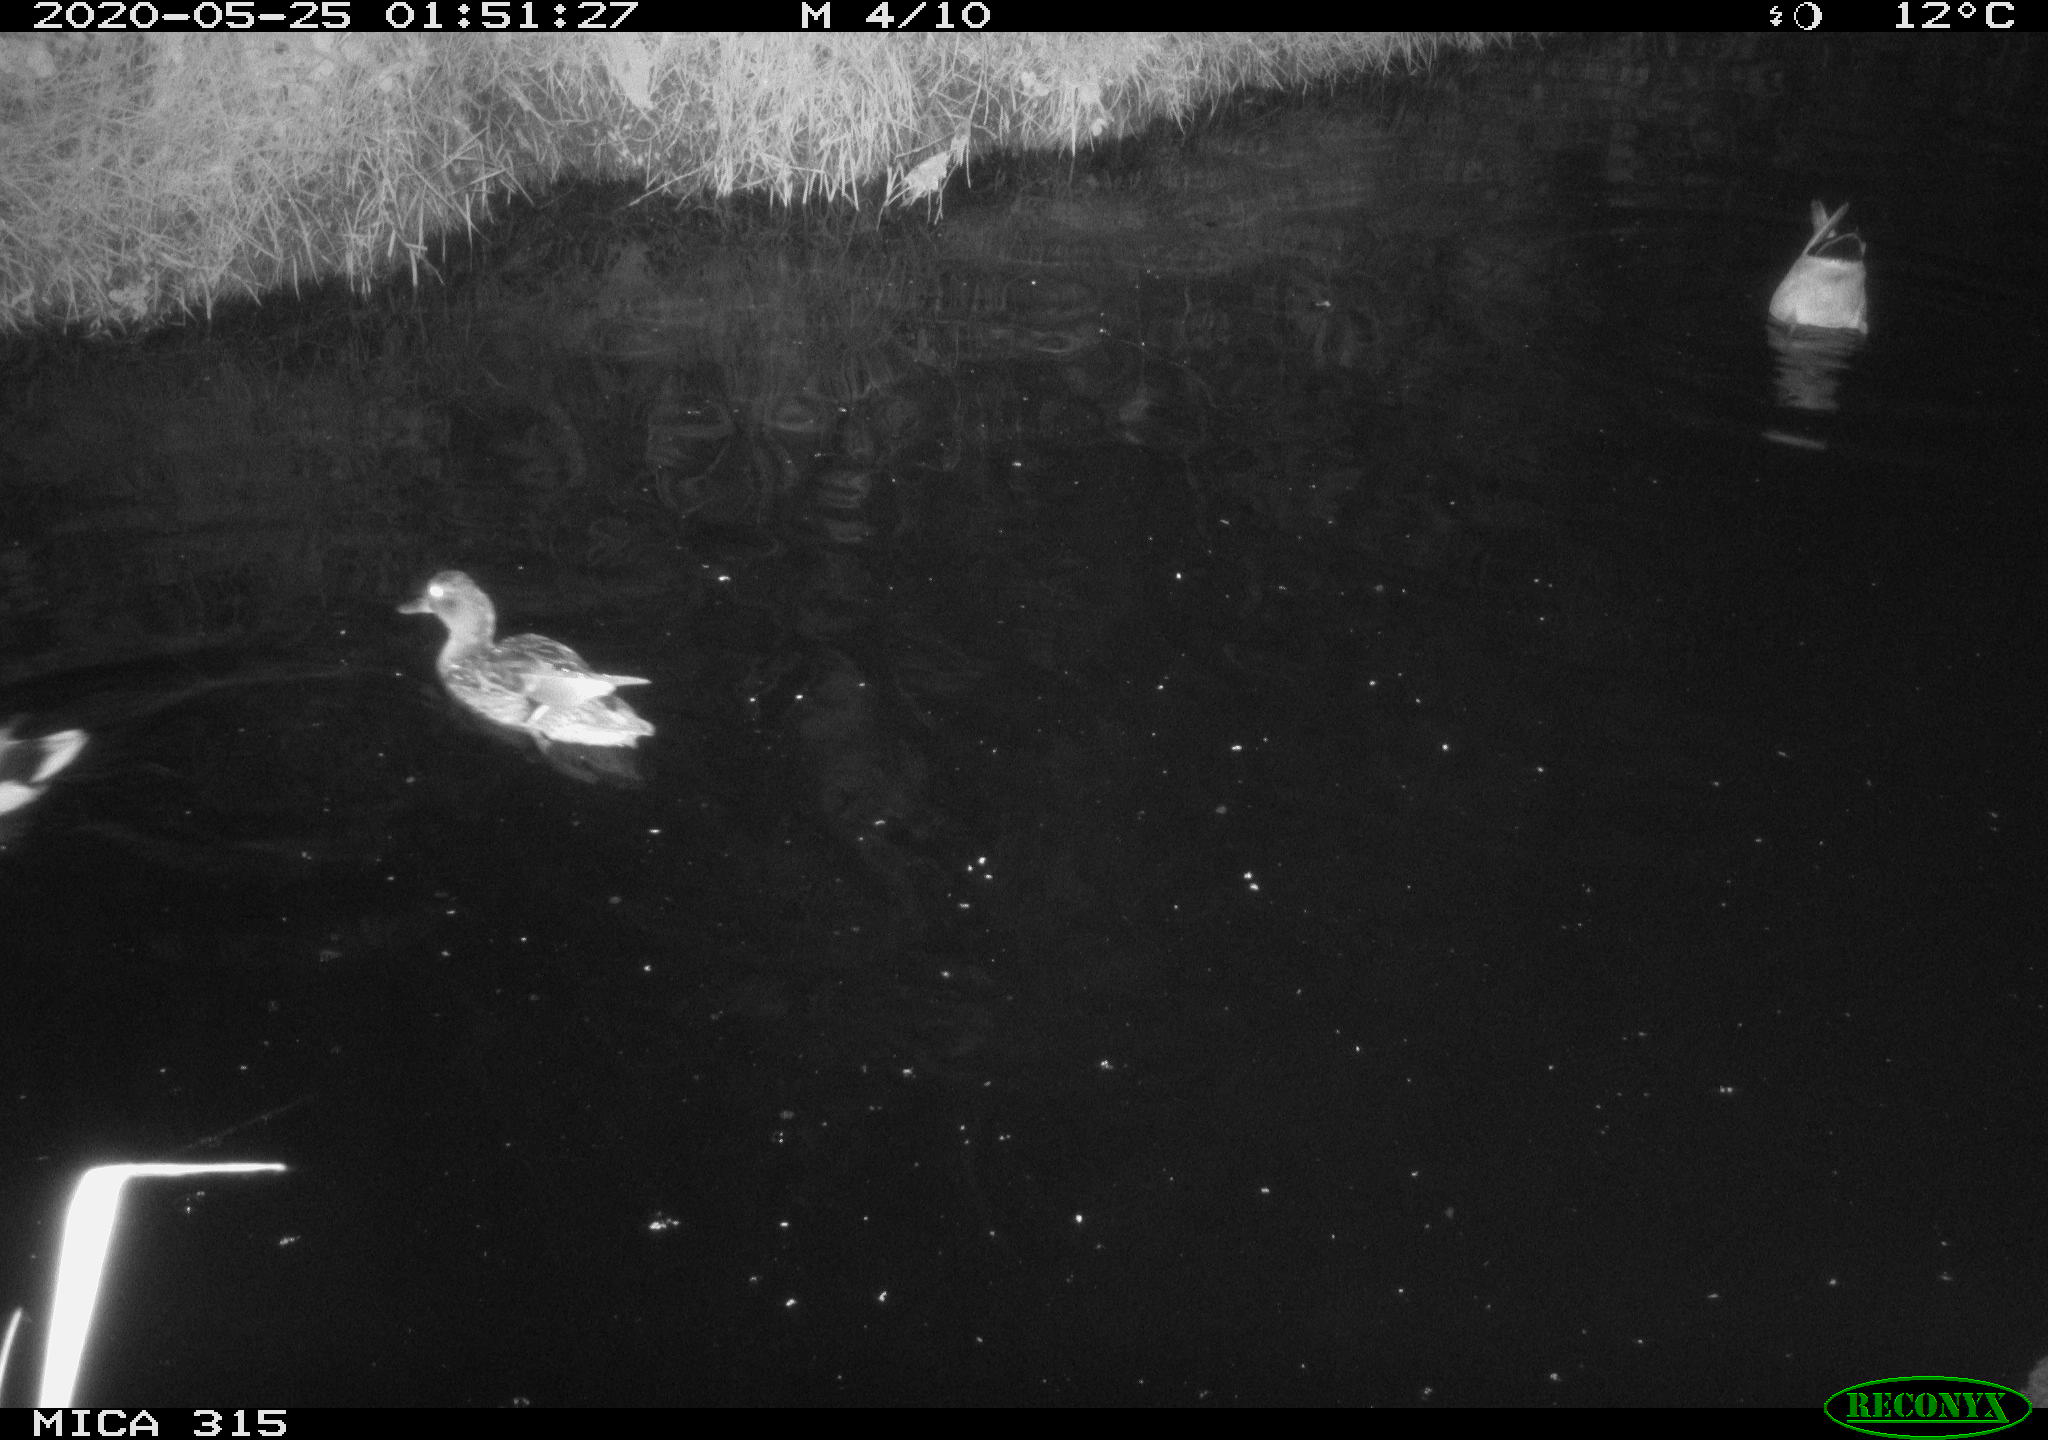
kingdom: Animalia
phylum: Chordata
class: Aves
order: Anseriformes
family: Anatidae
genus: Anas
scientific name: Anas platyrhynchos
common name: Mallard
